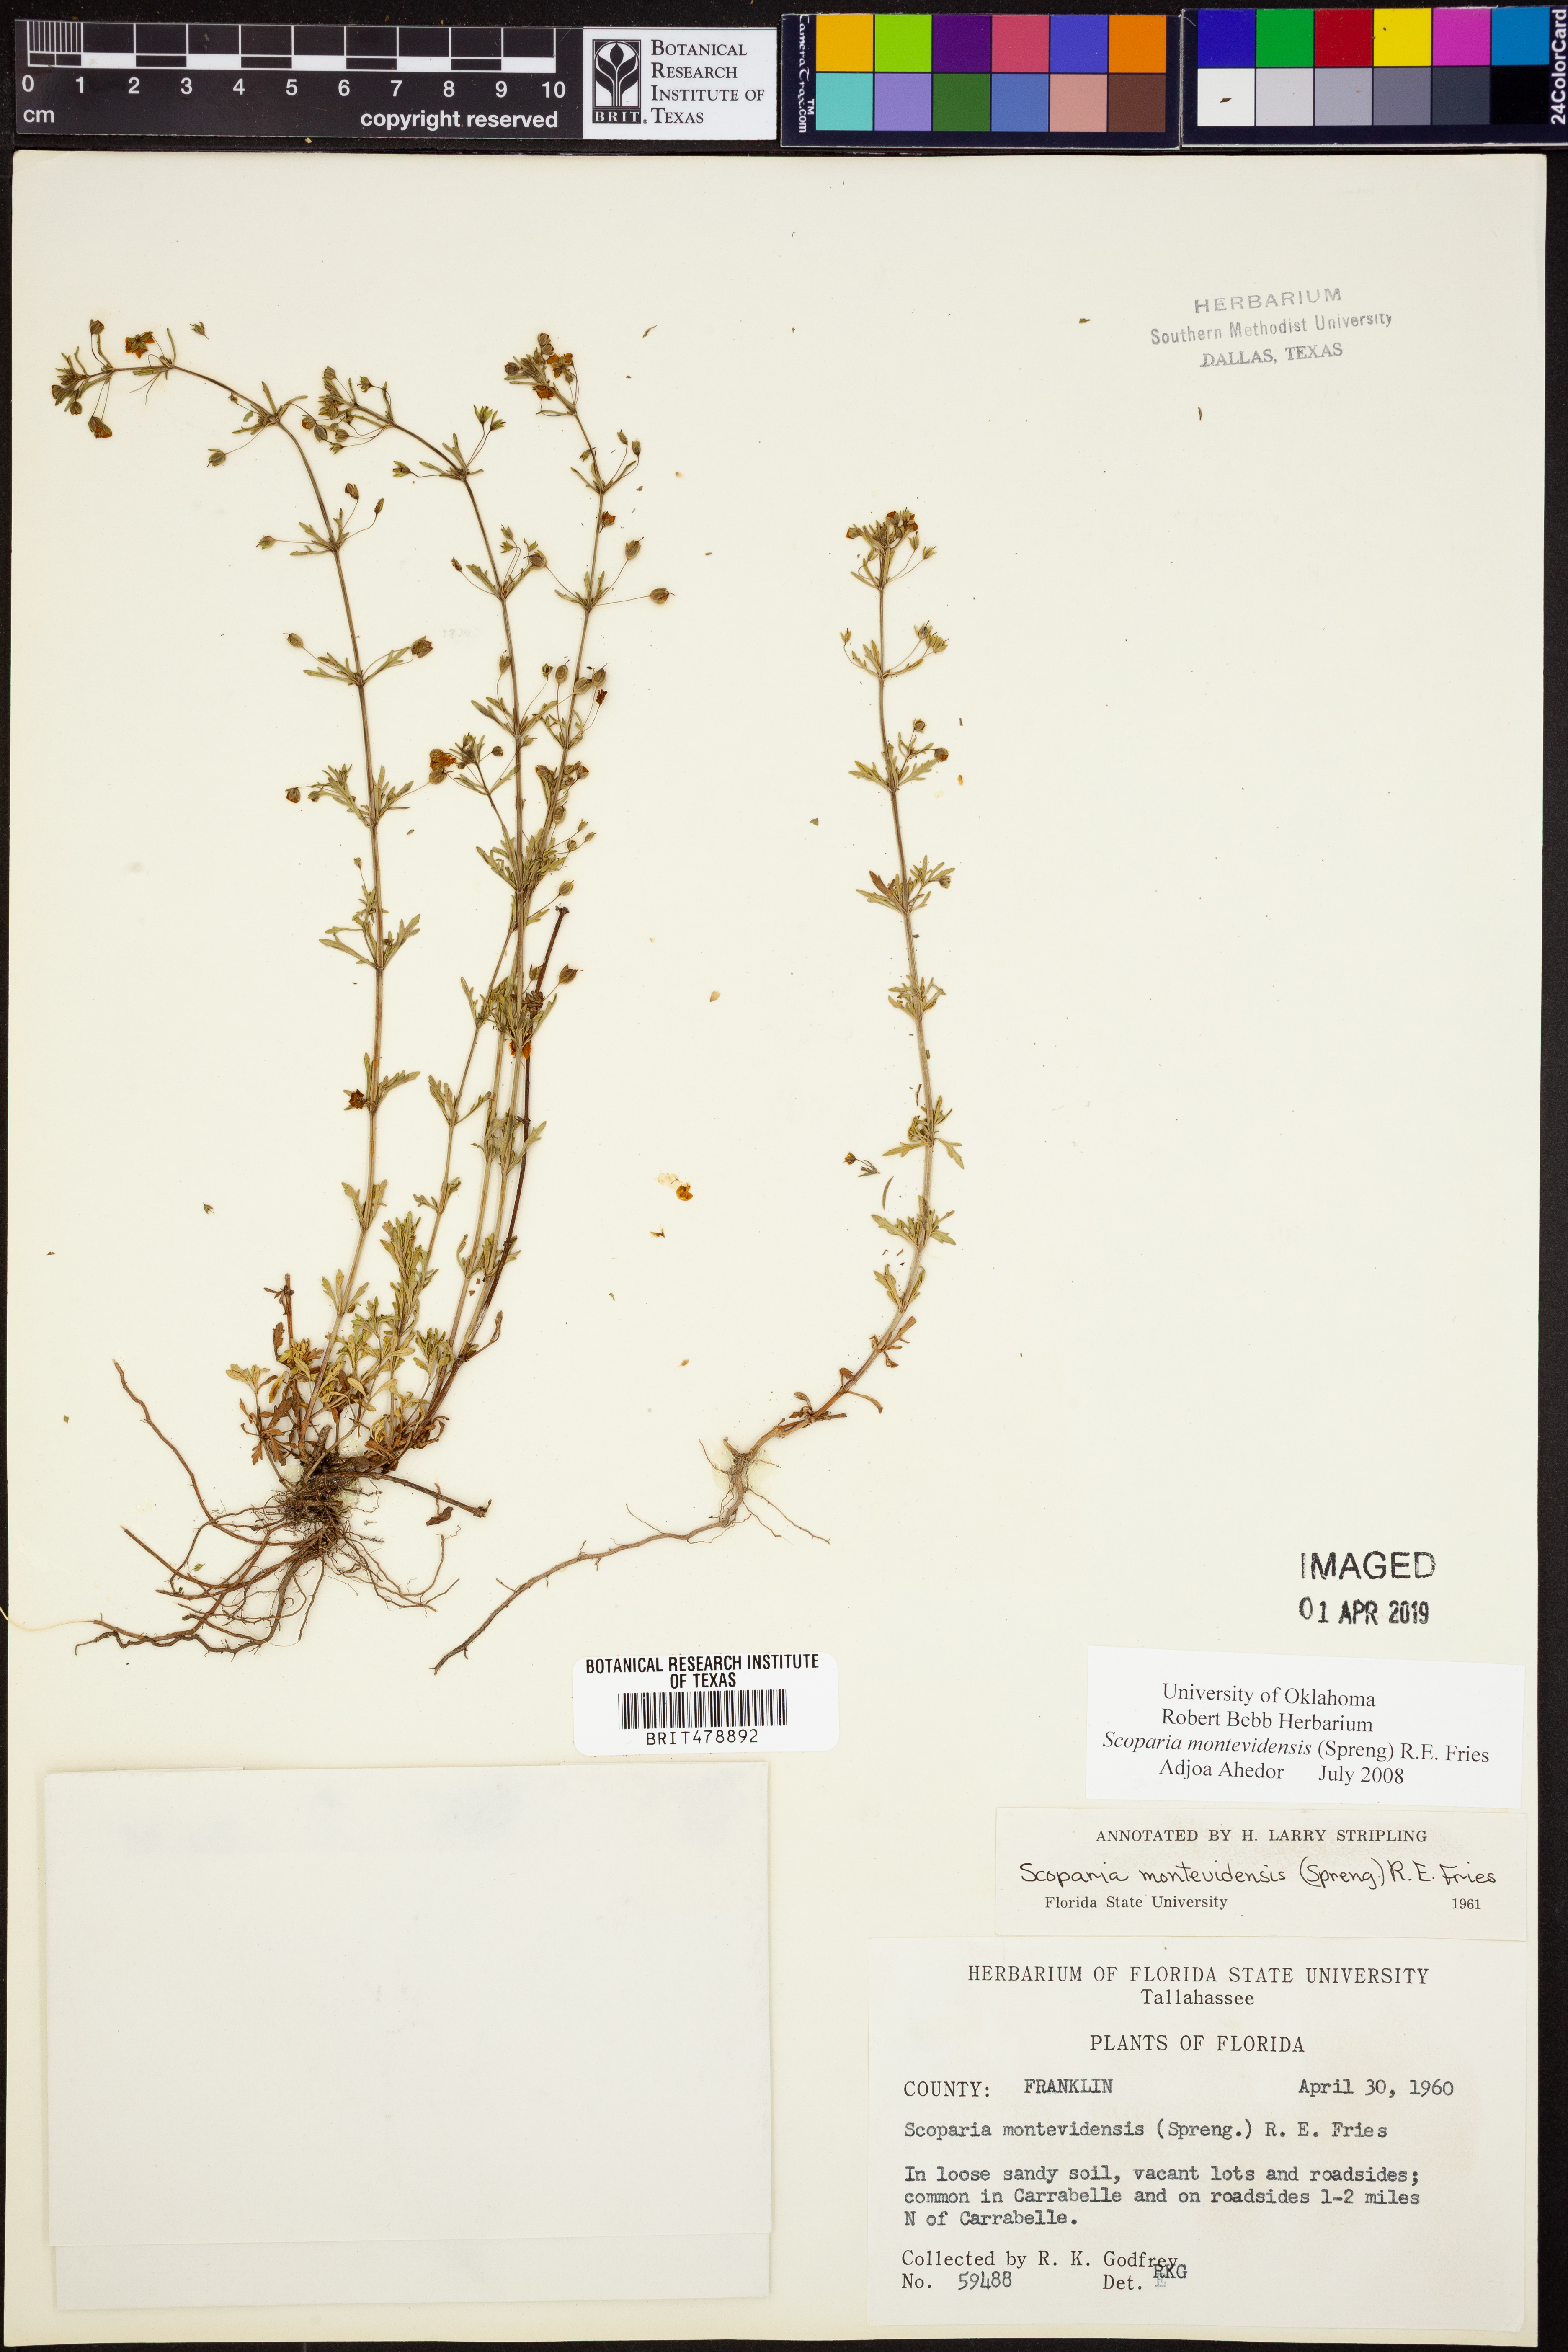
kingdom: Plantae
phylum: Tracheophyta
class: Magnoliopsida
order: Lamiales
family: Plantaginaceae
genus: Scoparia
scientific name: Scoparia montevidensis
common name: Broomwort
